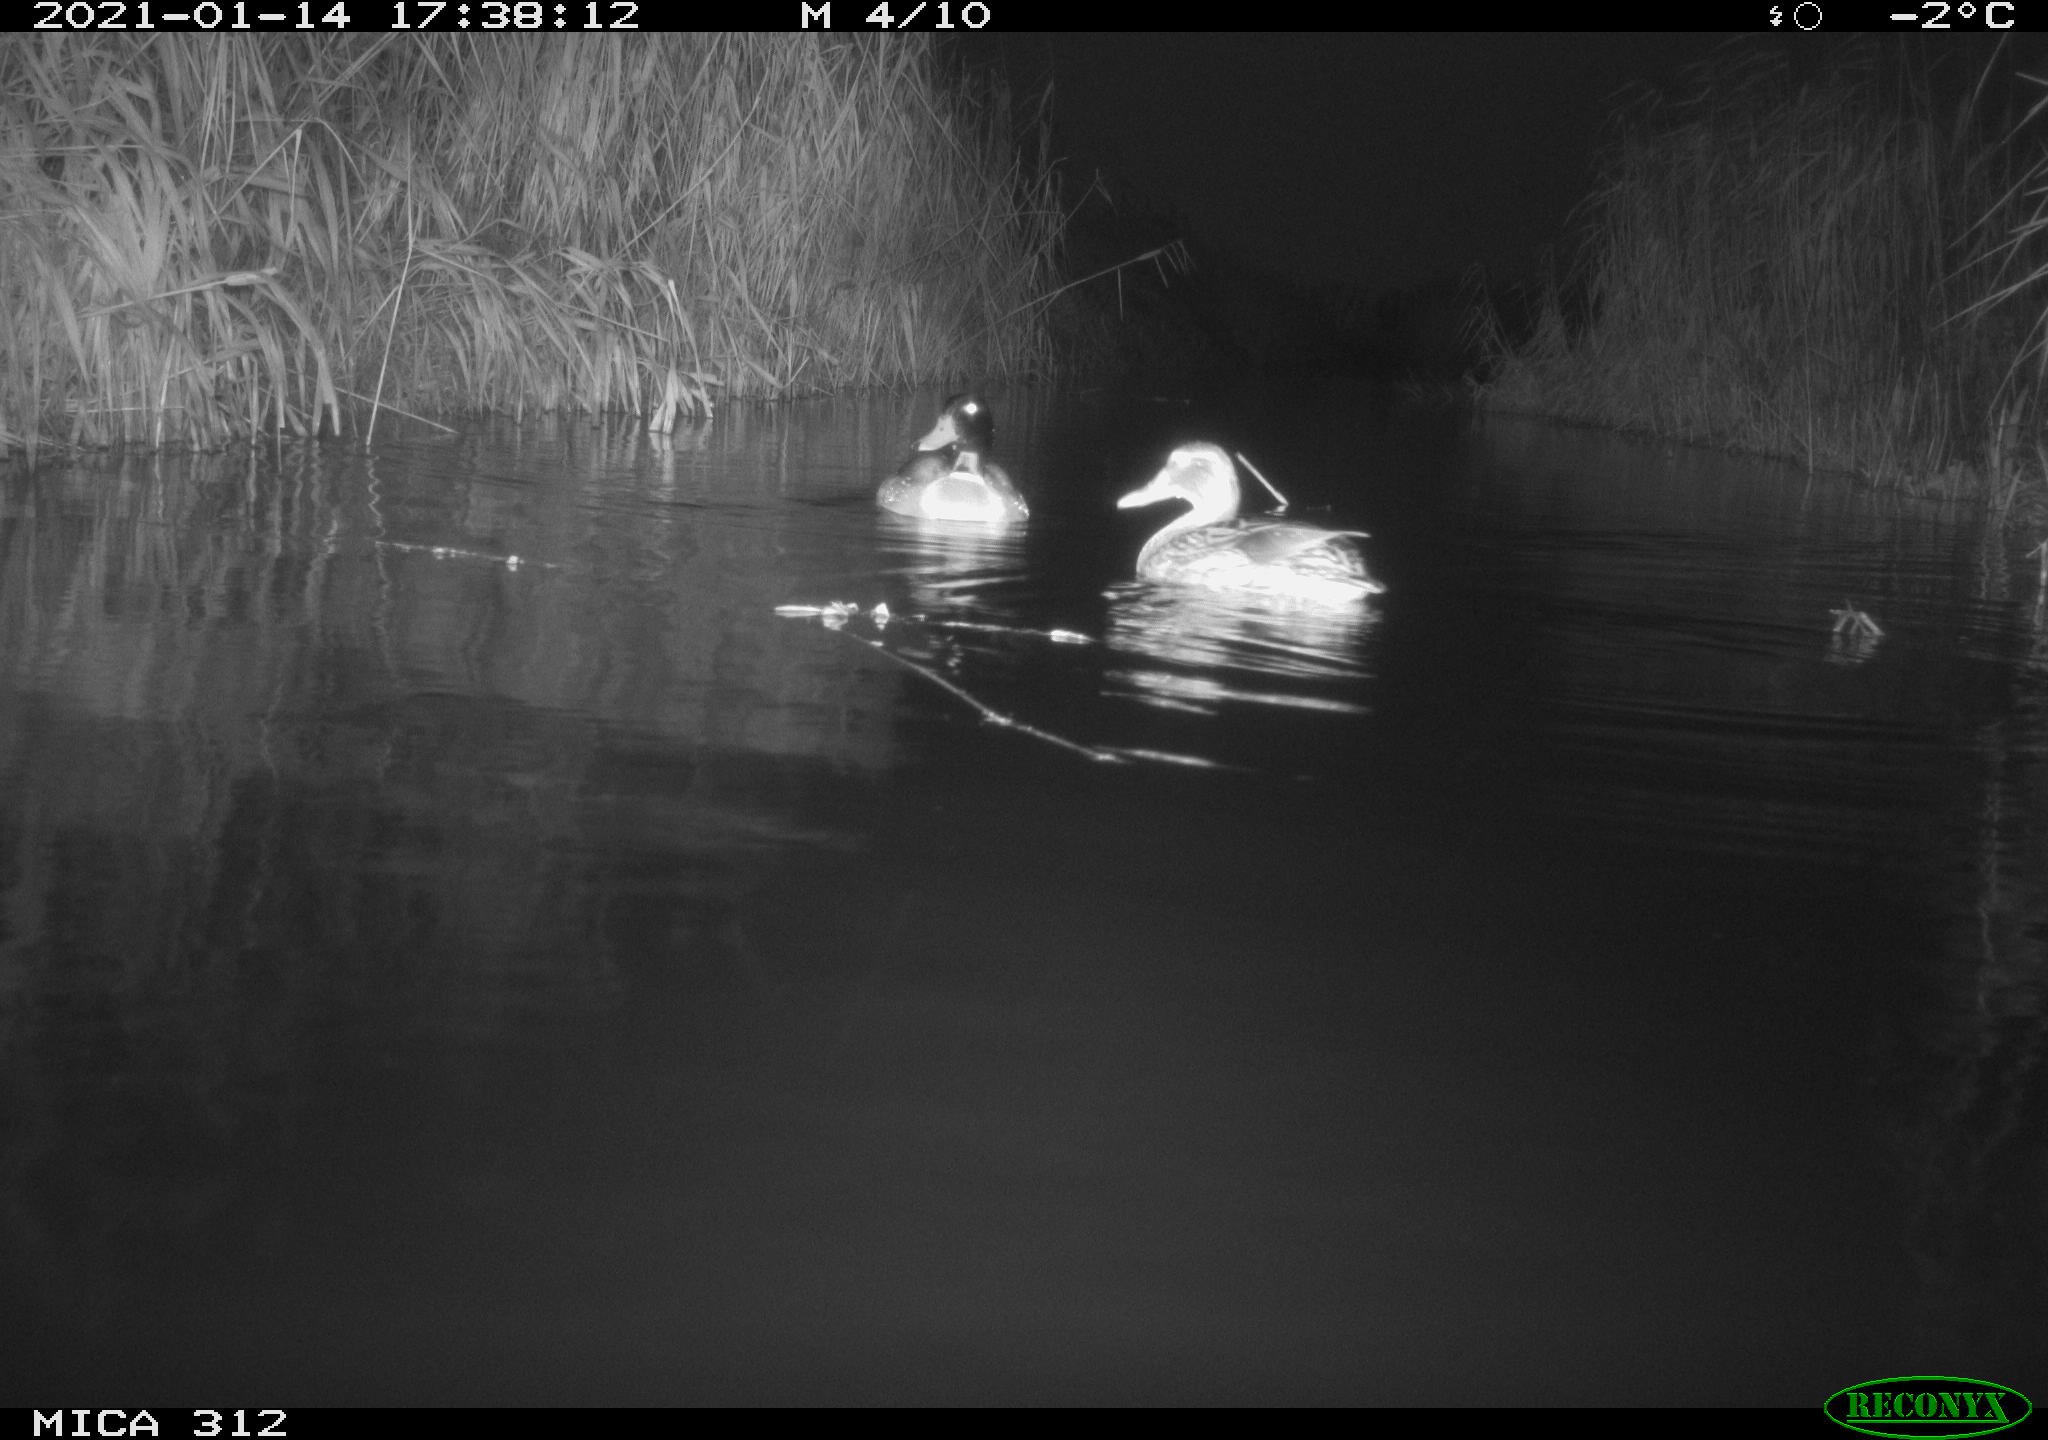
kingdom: Animalia
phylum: Chordata
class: Aves
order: Anseriformes
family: Anatidae
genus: Anas
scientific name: Anas platyrhynchos
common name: Mallard
